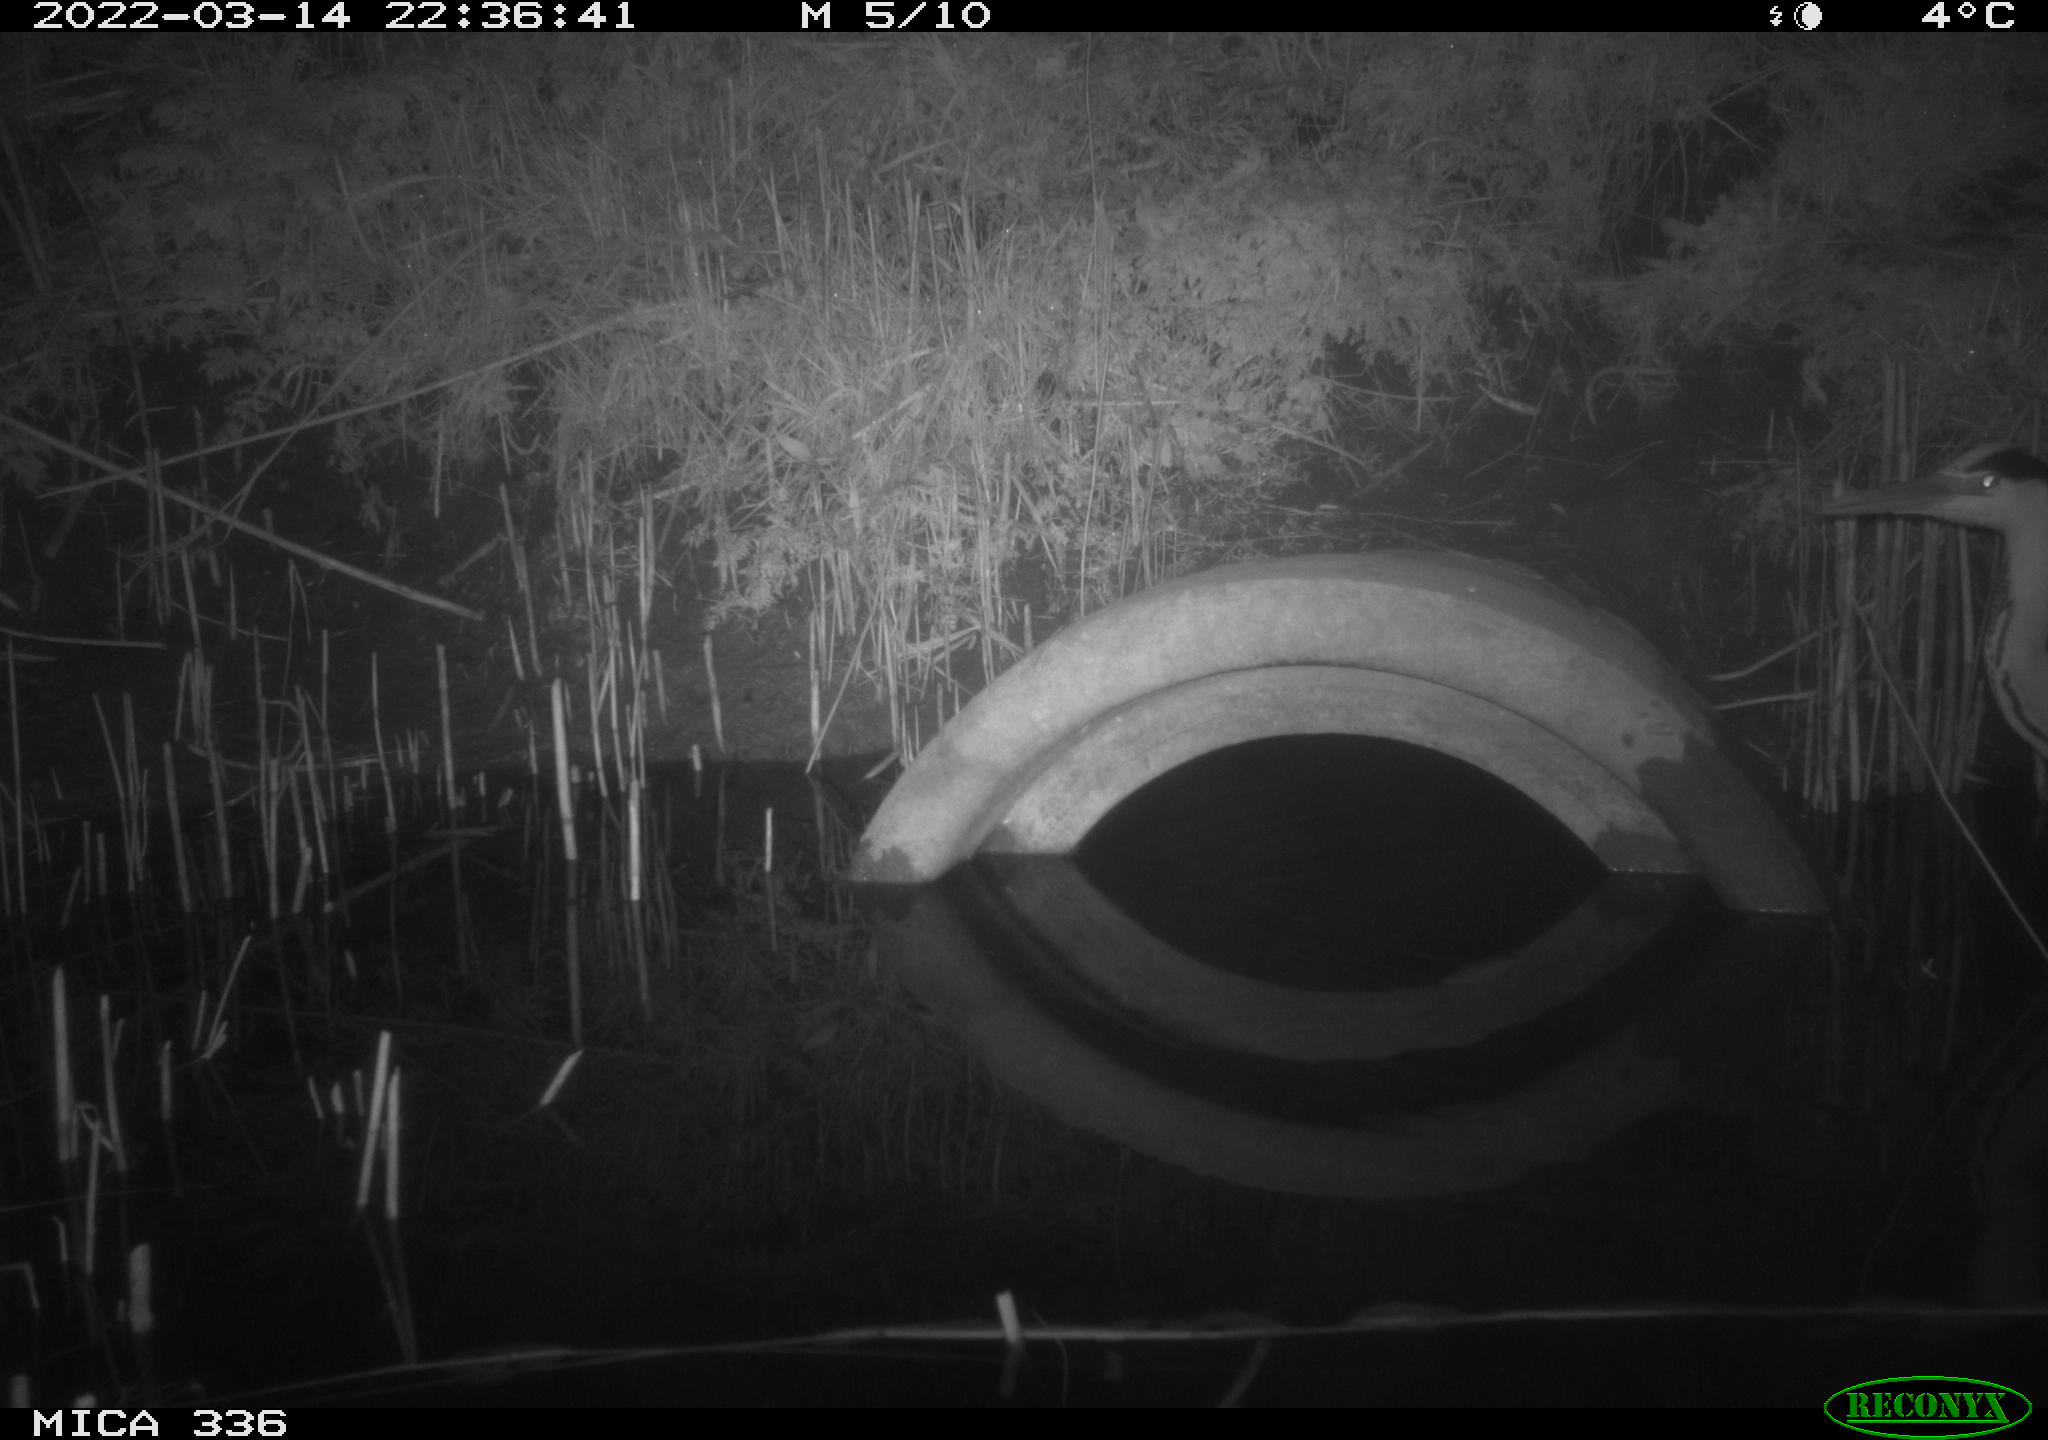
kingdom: Animalia
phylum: Chordata
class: Aves
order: Pelecaniformes
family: Ardeidae
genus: Ardea
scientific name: Ardea cinerea
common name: Grey heron
